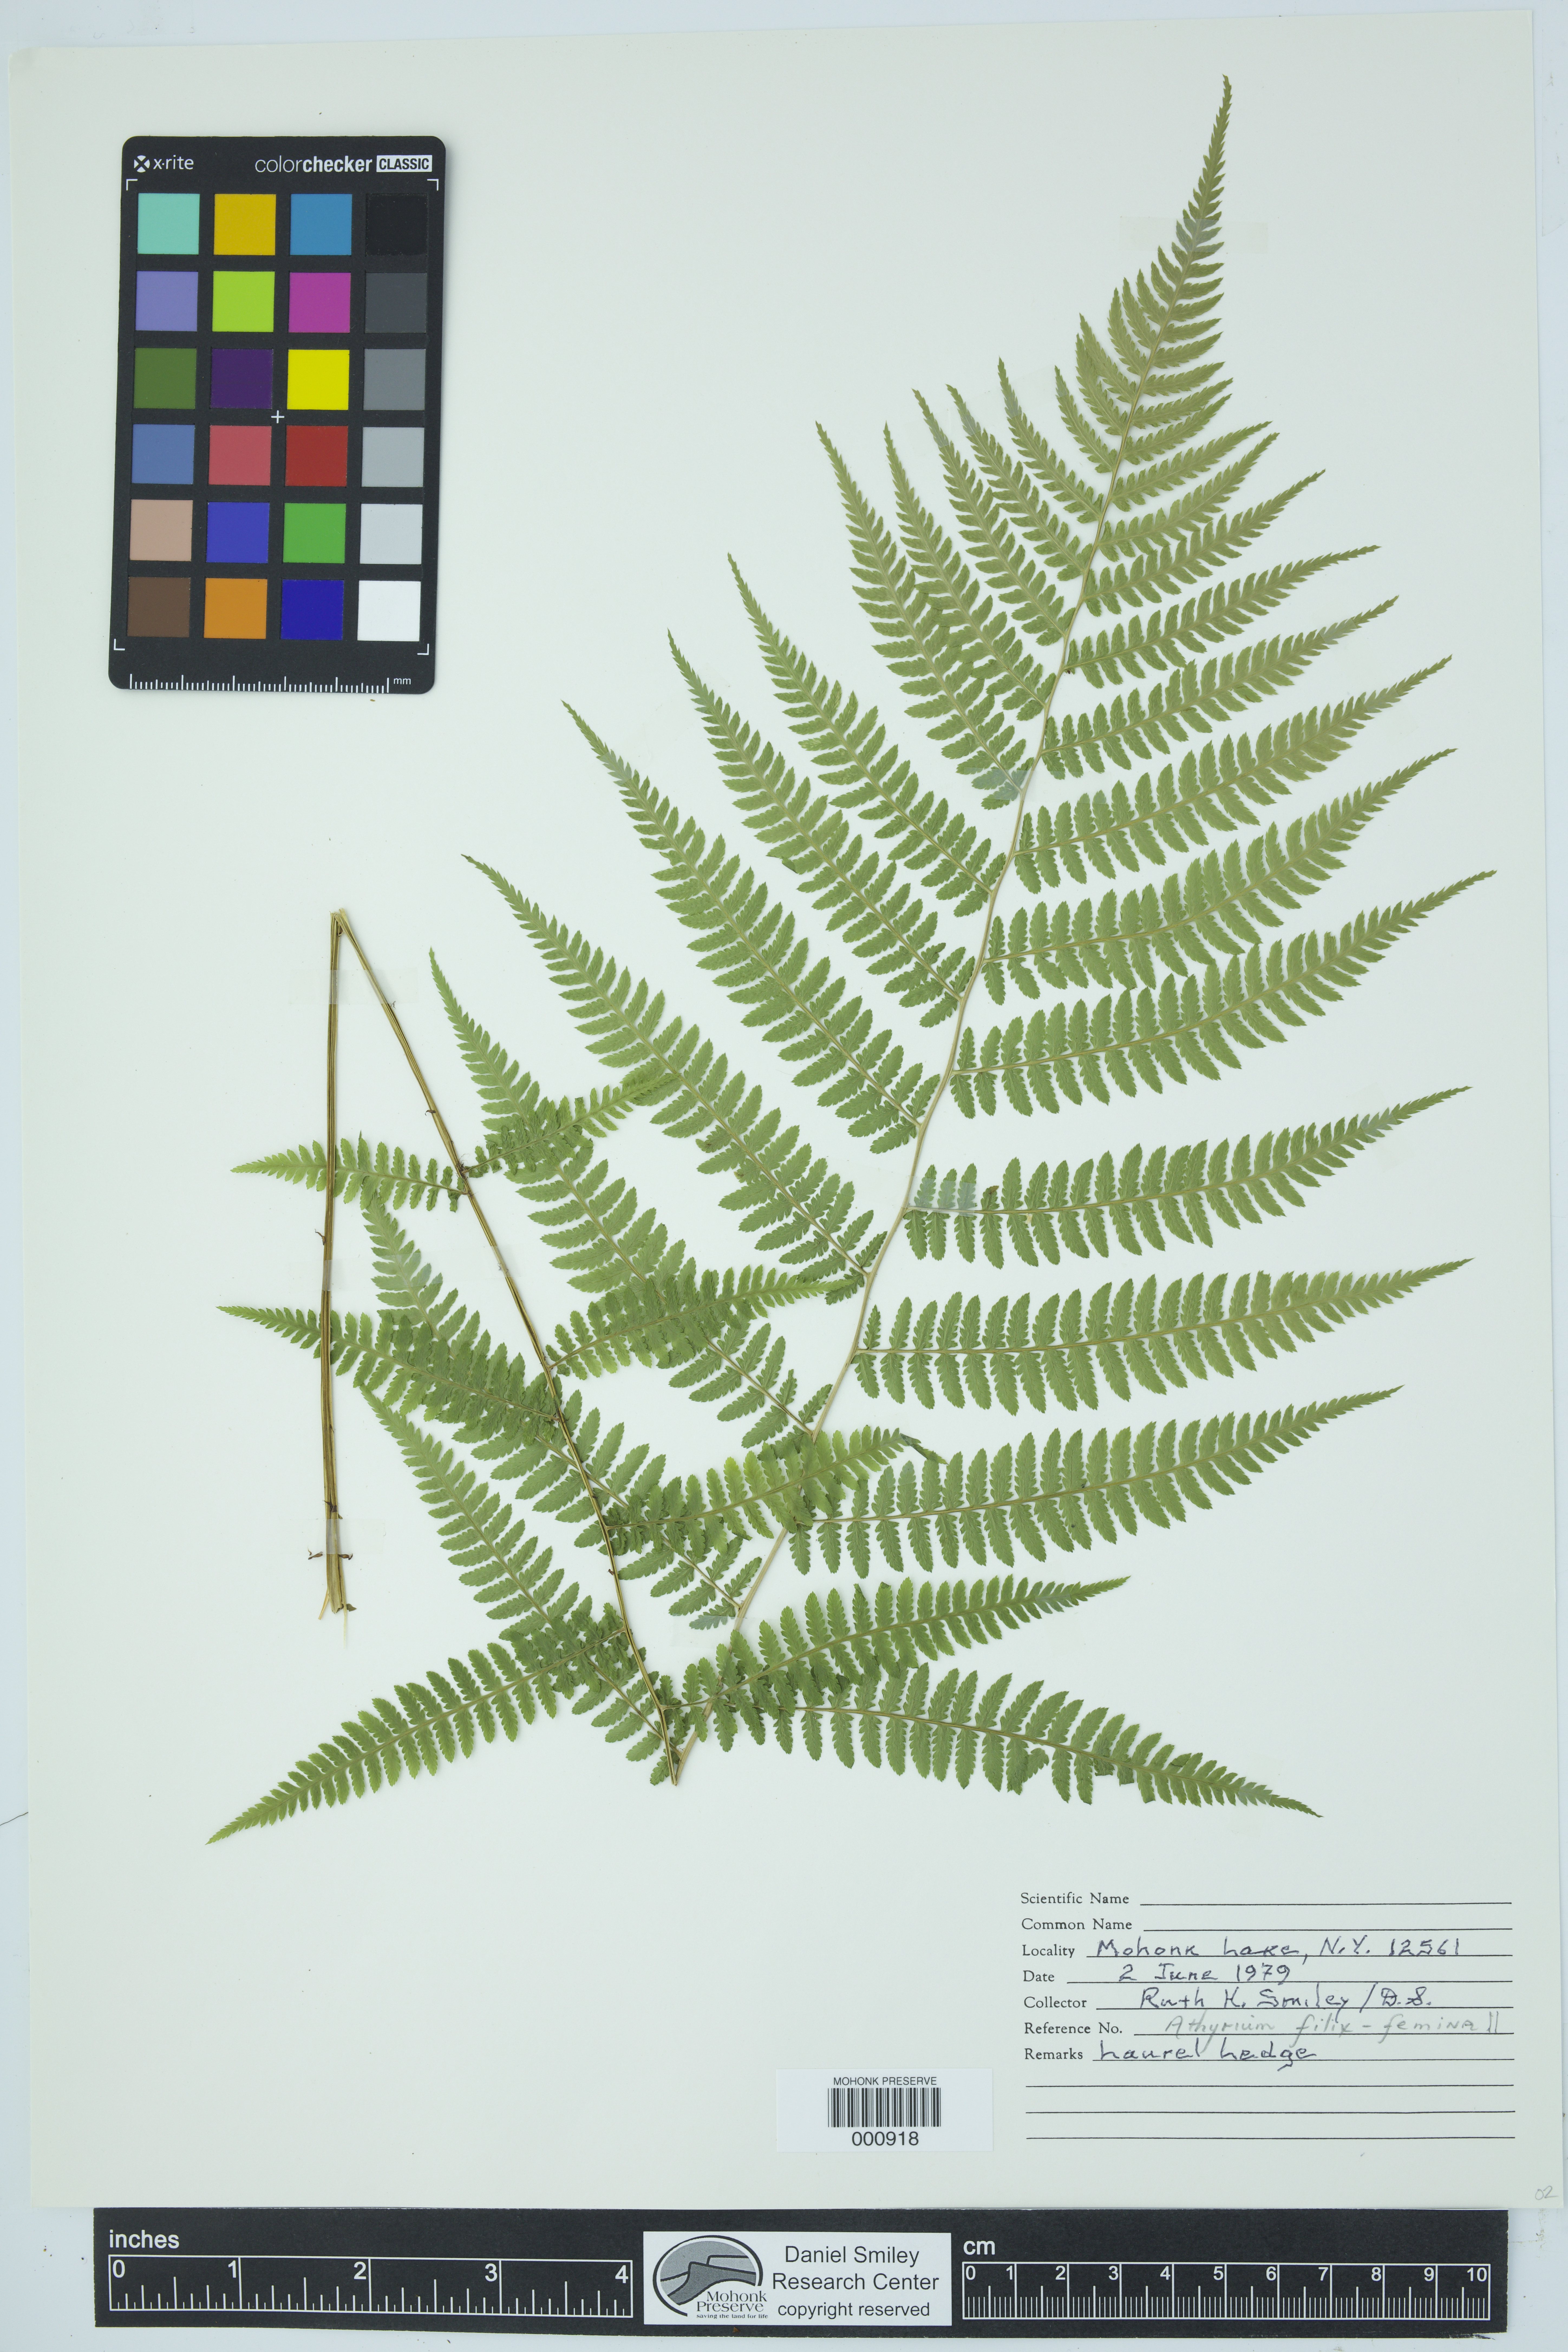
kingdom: Plantae
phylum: Tracheophyta
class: Polypodiopsida
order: Polypodiales
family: Athyriaceae
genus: Athyrium
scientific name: Athyrium filix-femina
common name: Lady fern
